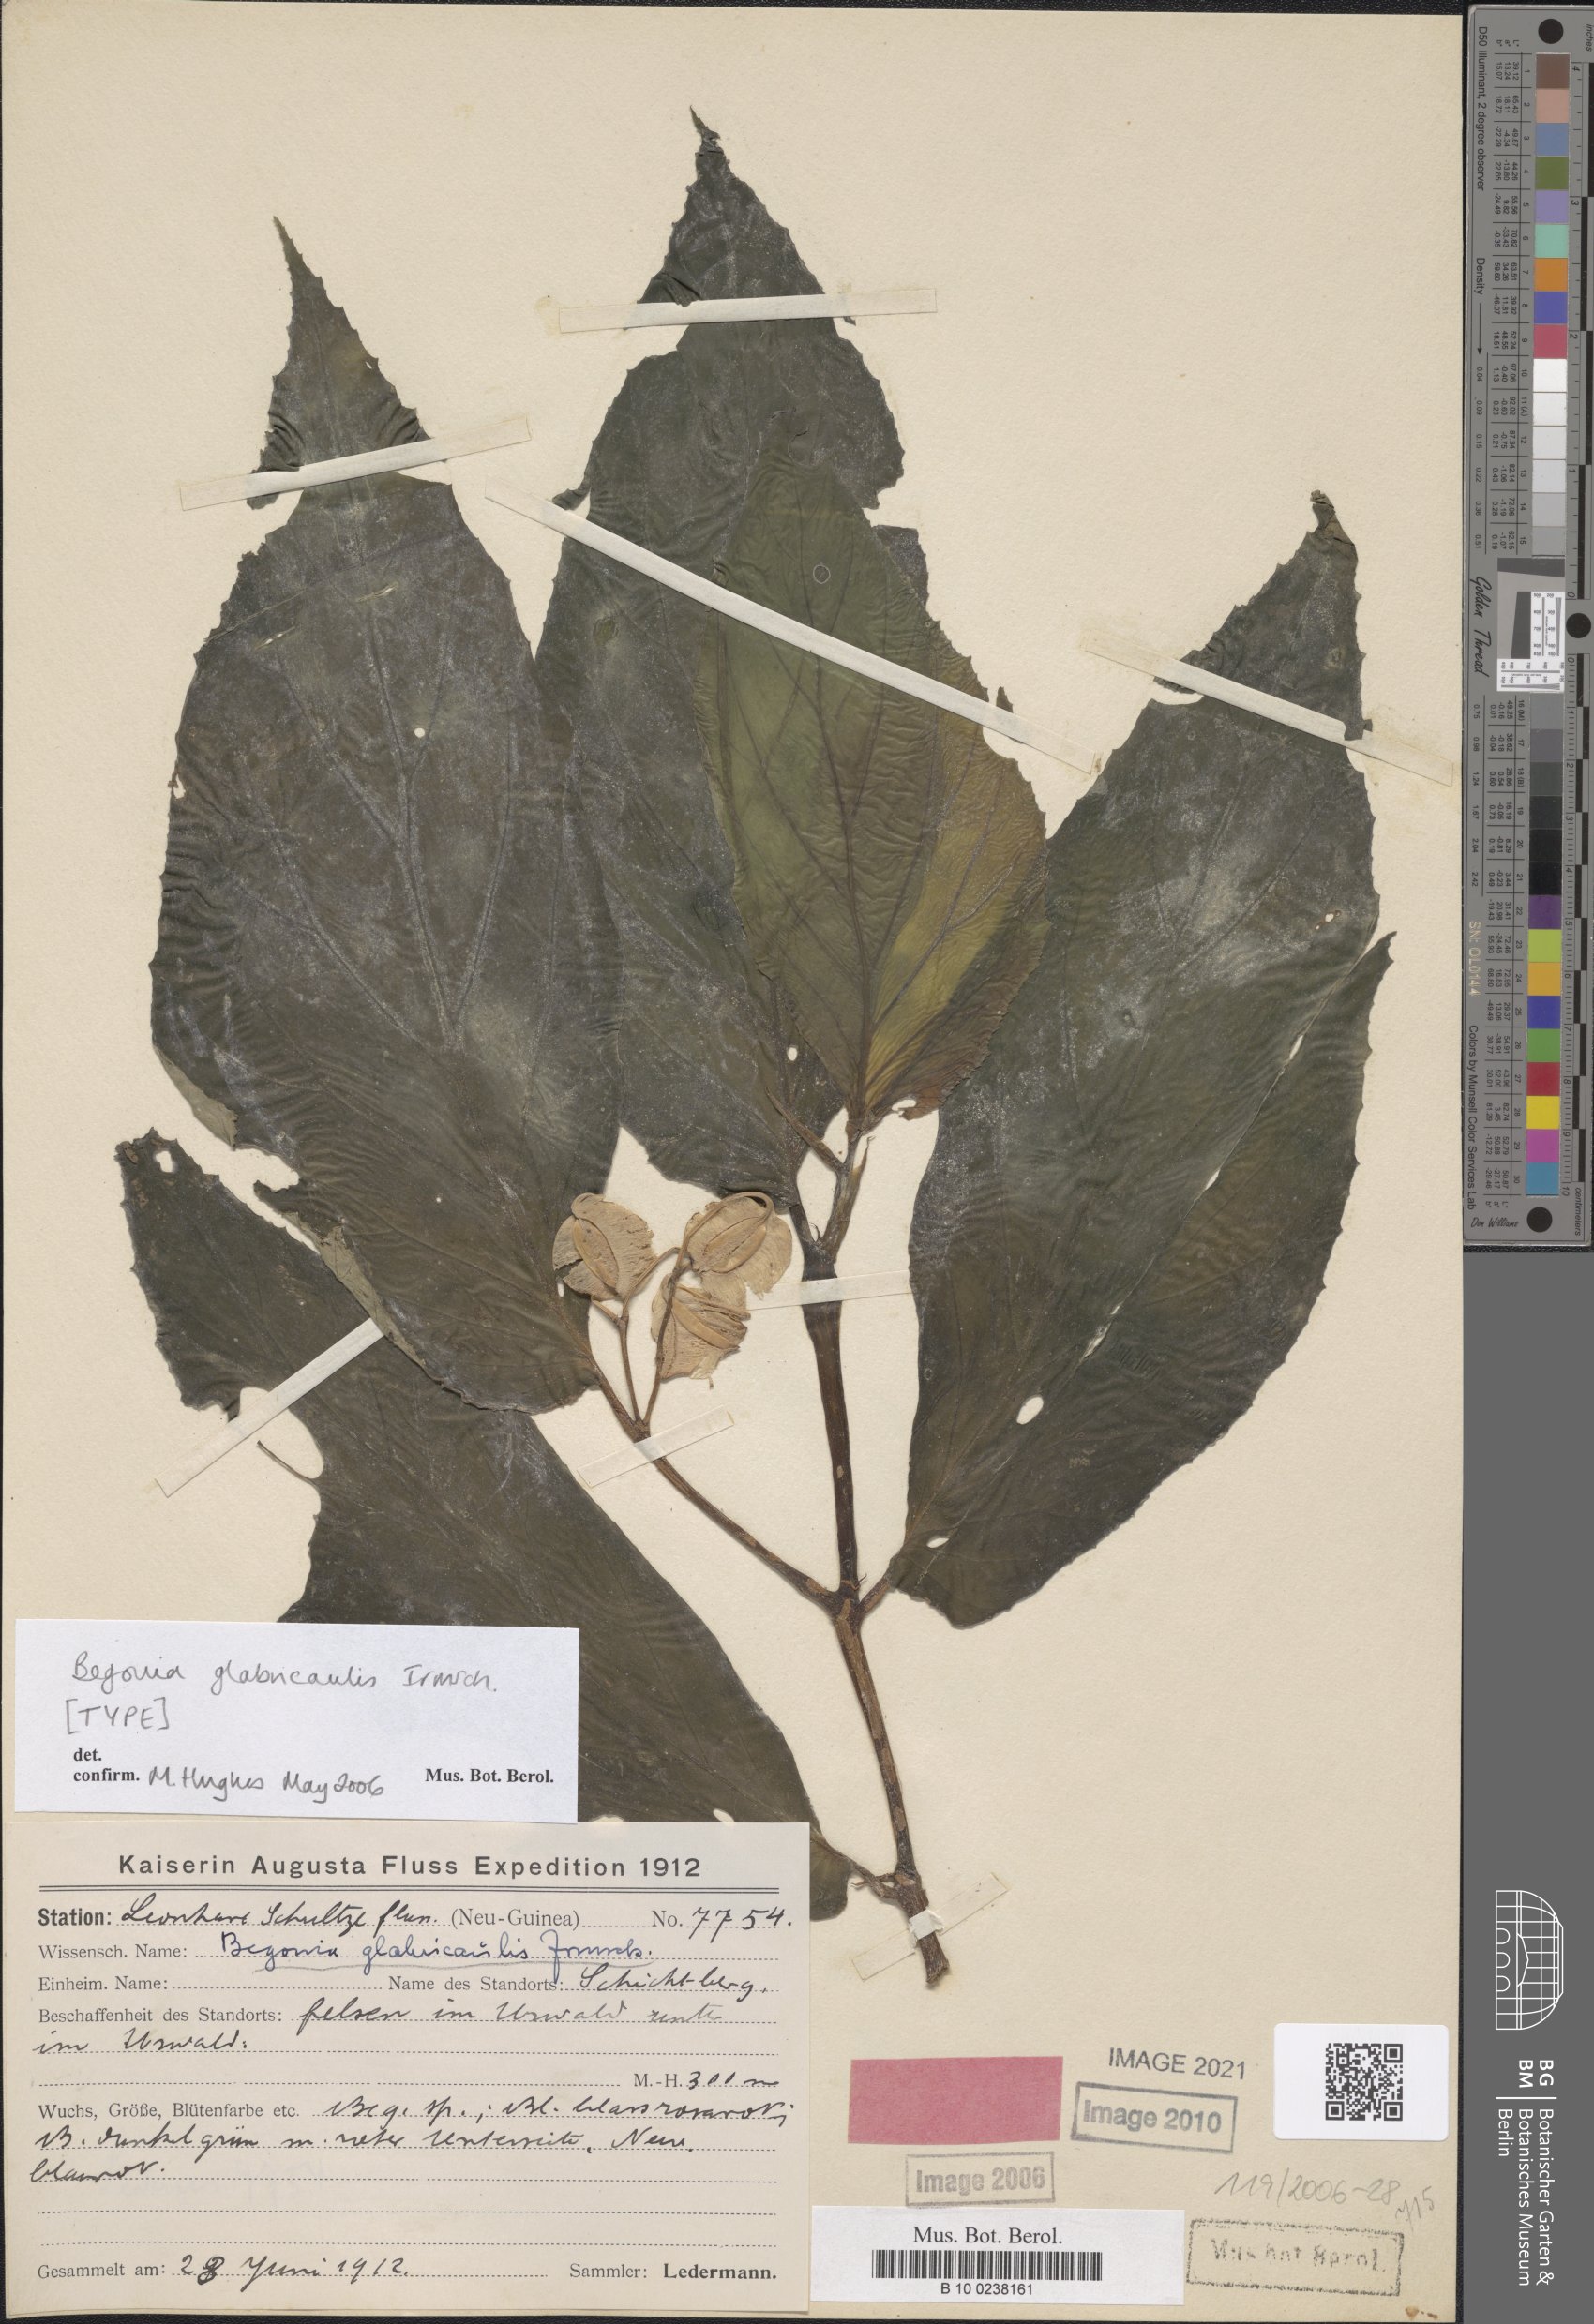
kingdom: Plantae
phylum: Tracheophyta
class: Magnoliopsida
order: Cucurbitales
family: Begoniaceae
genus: Begonia
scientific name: Begonia glabricaulis
